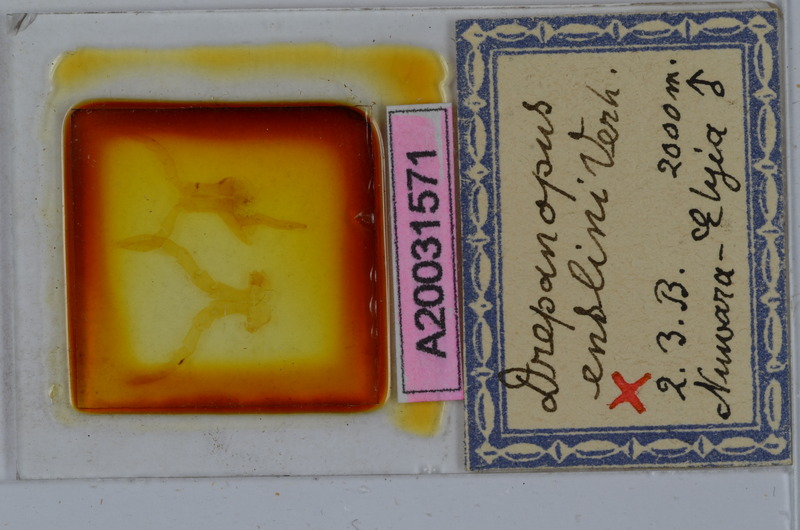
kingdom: Animalia
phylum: Arthropoda
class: Diplopoda
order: Spirostreptida
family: Harpagophoridae
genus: Ktenostreptus
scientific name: Ktenostreptus centrurus
